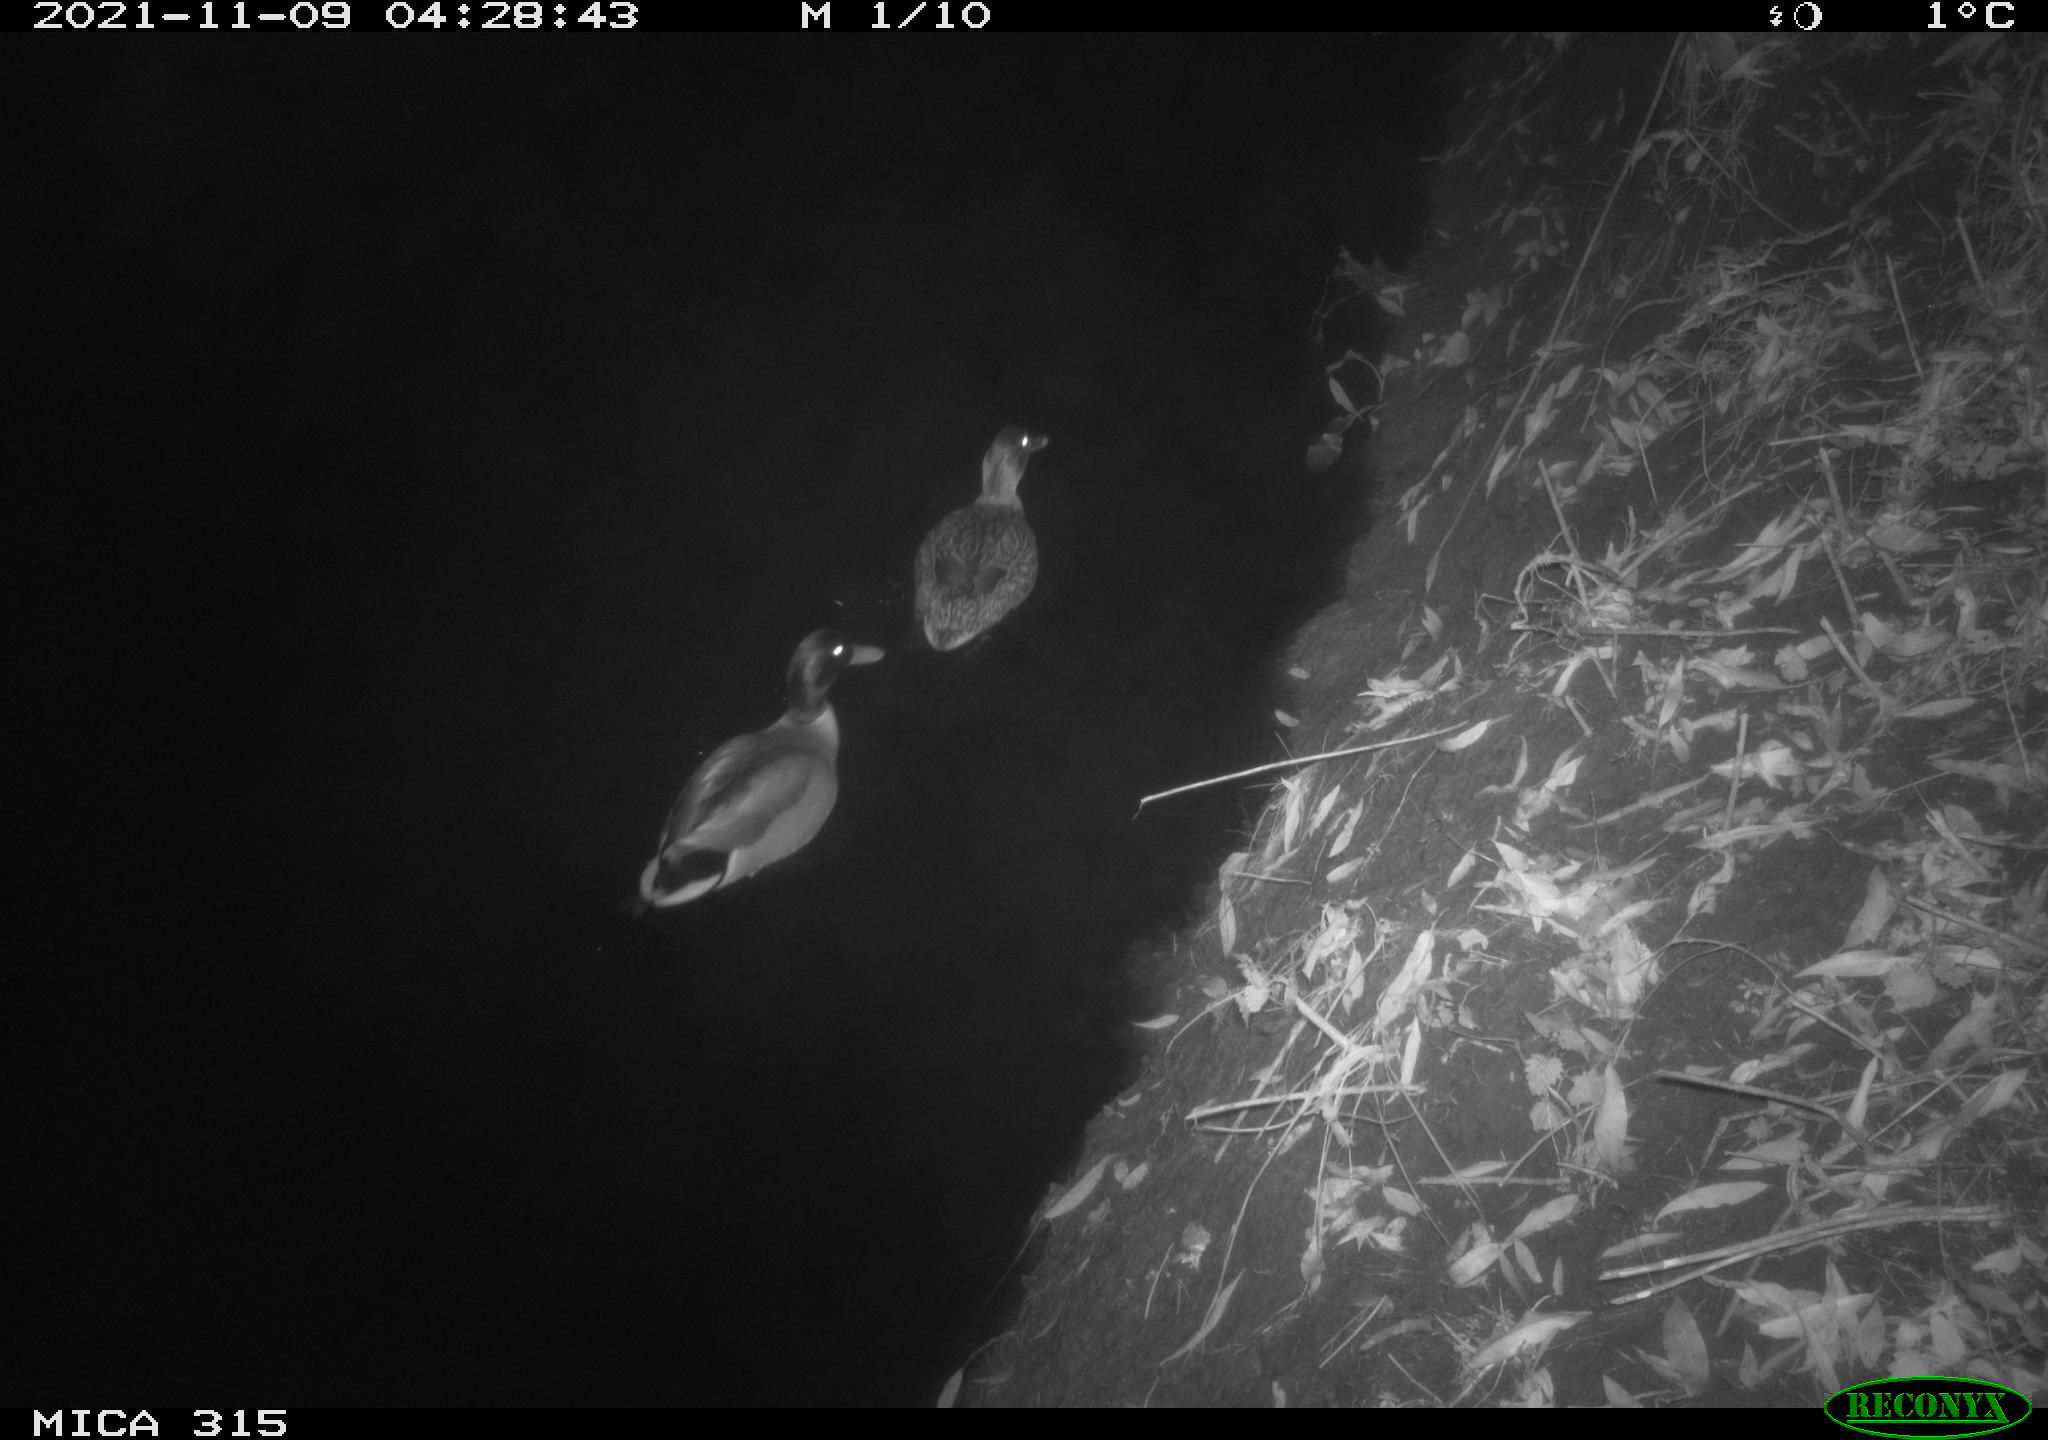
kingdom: Animalia
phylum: Chordata
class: Aves
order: Anseriformes
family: Anatidae
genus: Anas
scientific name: Anas platyrhynchos
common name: Mallard
